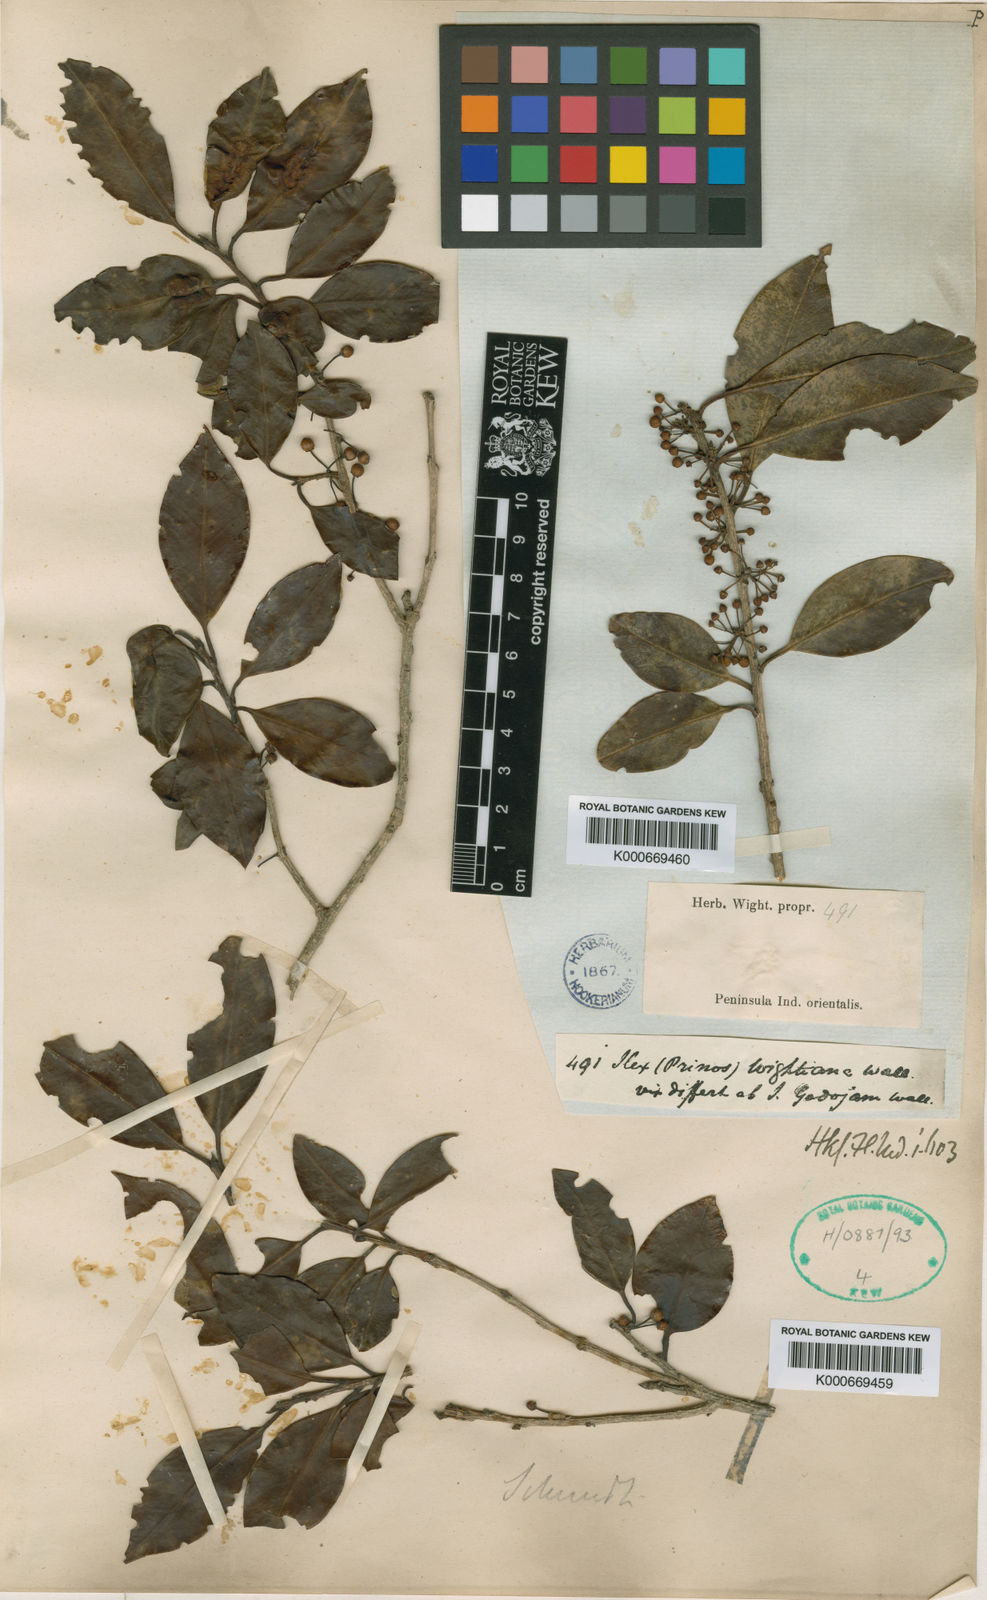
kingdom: Plantae
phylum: Tracheophyta
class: Magnoliopsida
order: Aquifoliales
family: Aquifoliaceae
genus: Ilex
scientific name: Ilex
